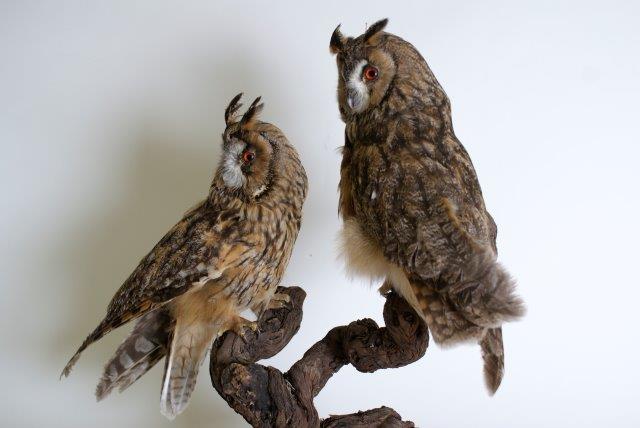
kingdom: Animalia
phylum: Chordata
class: Aves
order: Strigiformes
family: Strigidae
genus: Asio
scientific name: Asio otus
